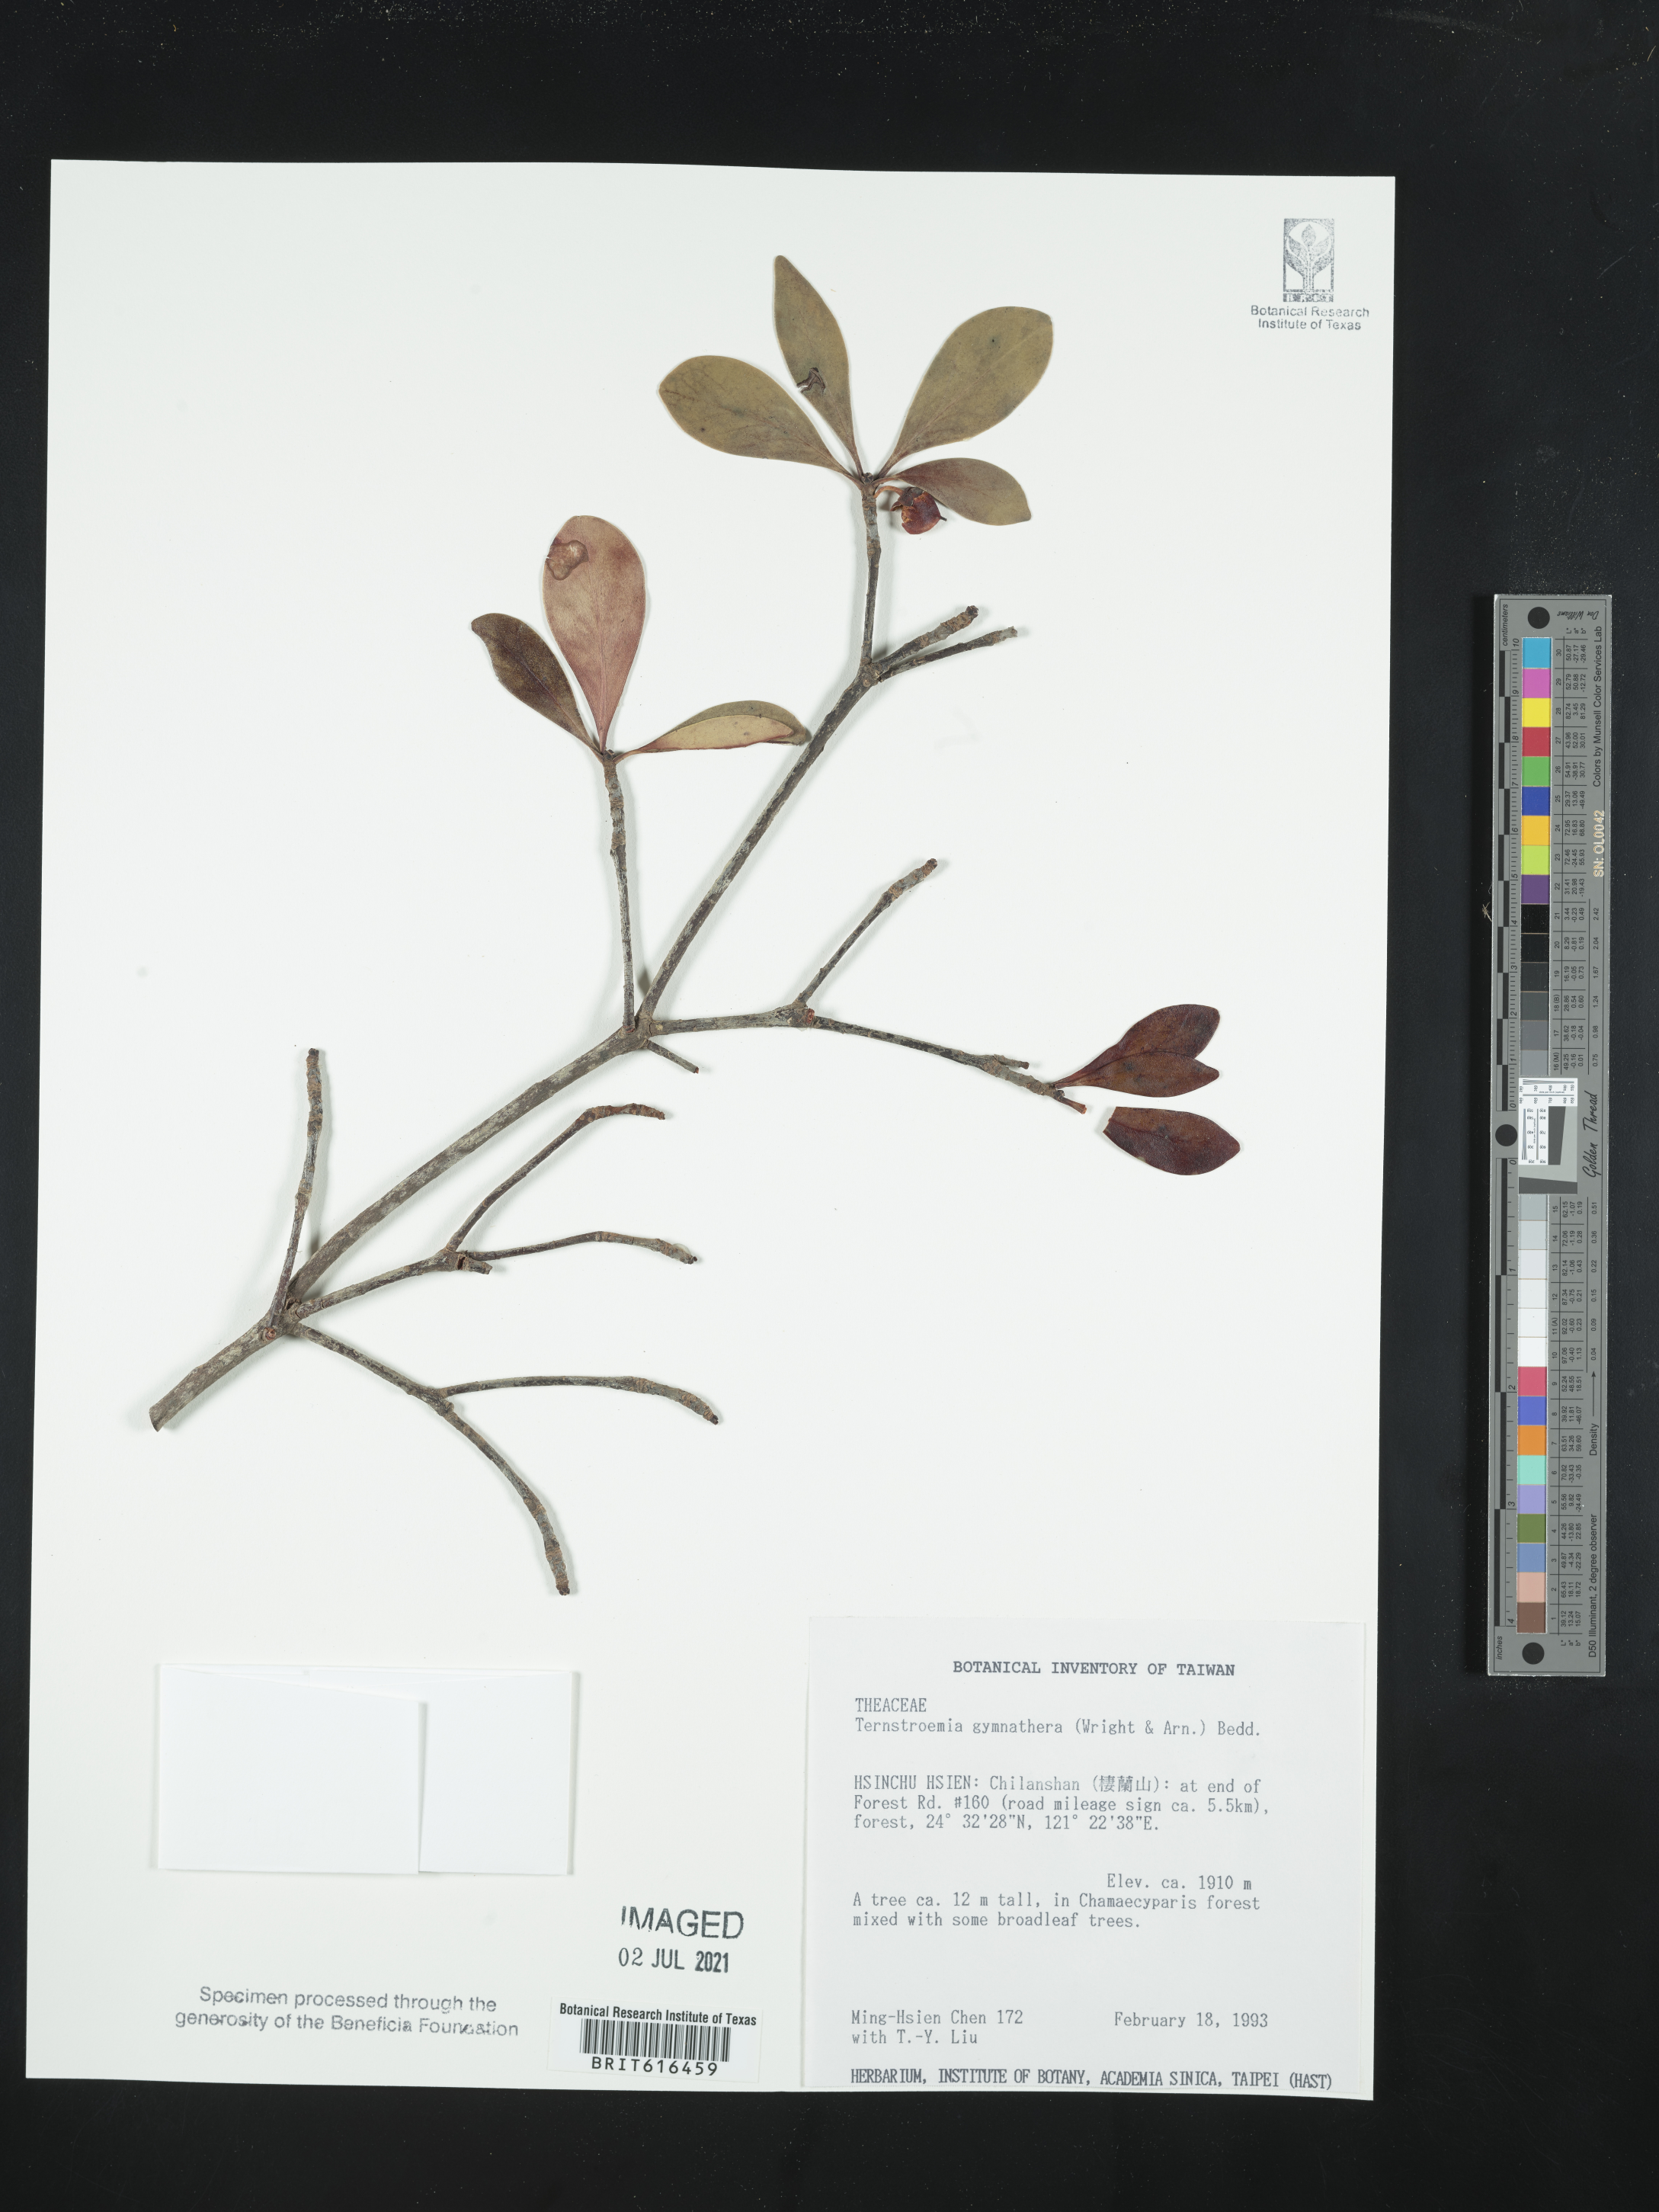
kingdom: Plantae
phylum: Tracheophyta
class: Magnoliopsida
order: Ericales
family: Pentaphylacaceae
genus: Ternstroemia
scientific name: Ternstroemia gymnanthera
